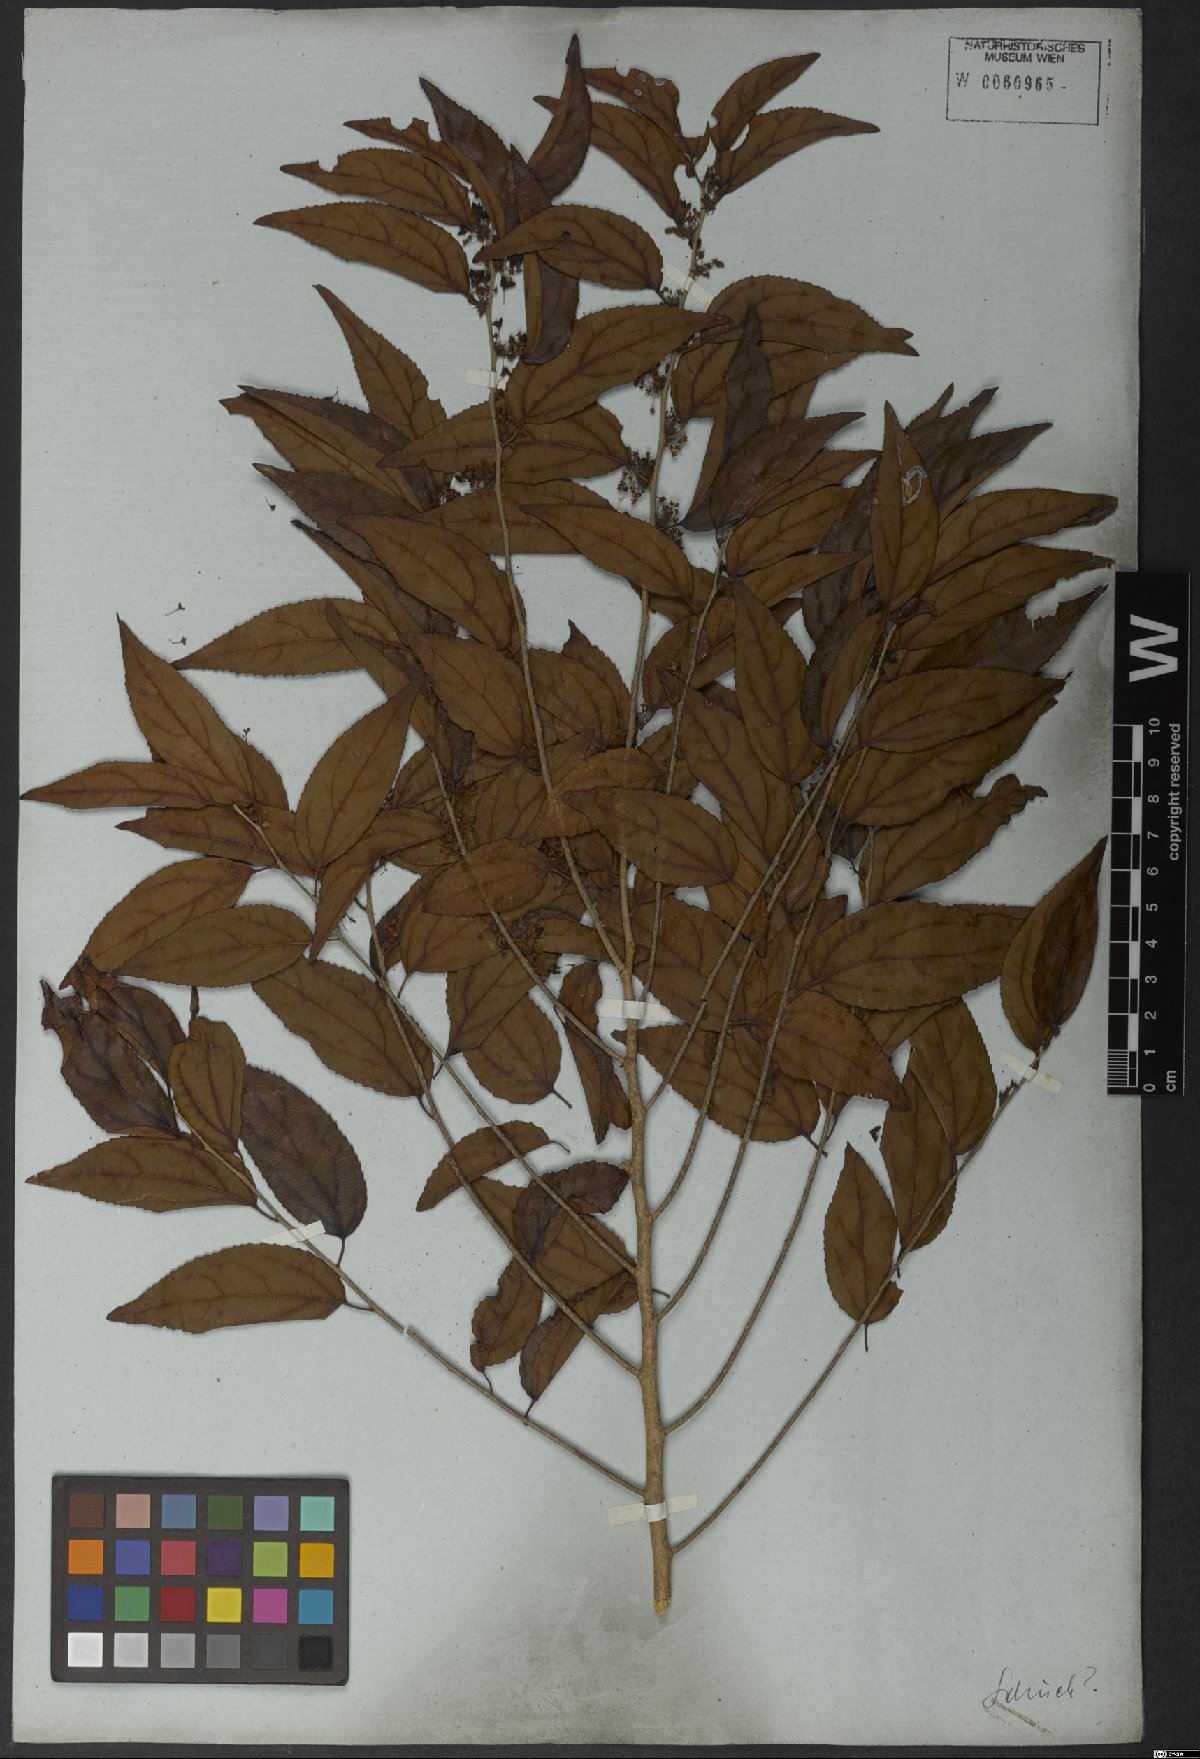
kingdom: Plantae
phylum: Tracheophyta
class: Magnoliopsida
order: Malpighiales
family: Salicaceae
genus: Casearia
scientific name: Casearia obliqua
